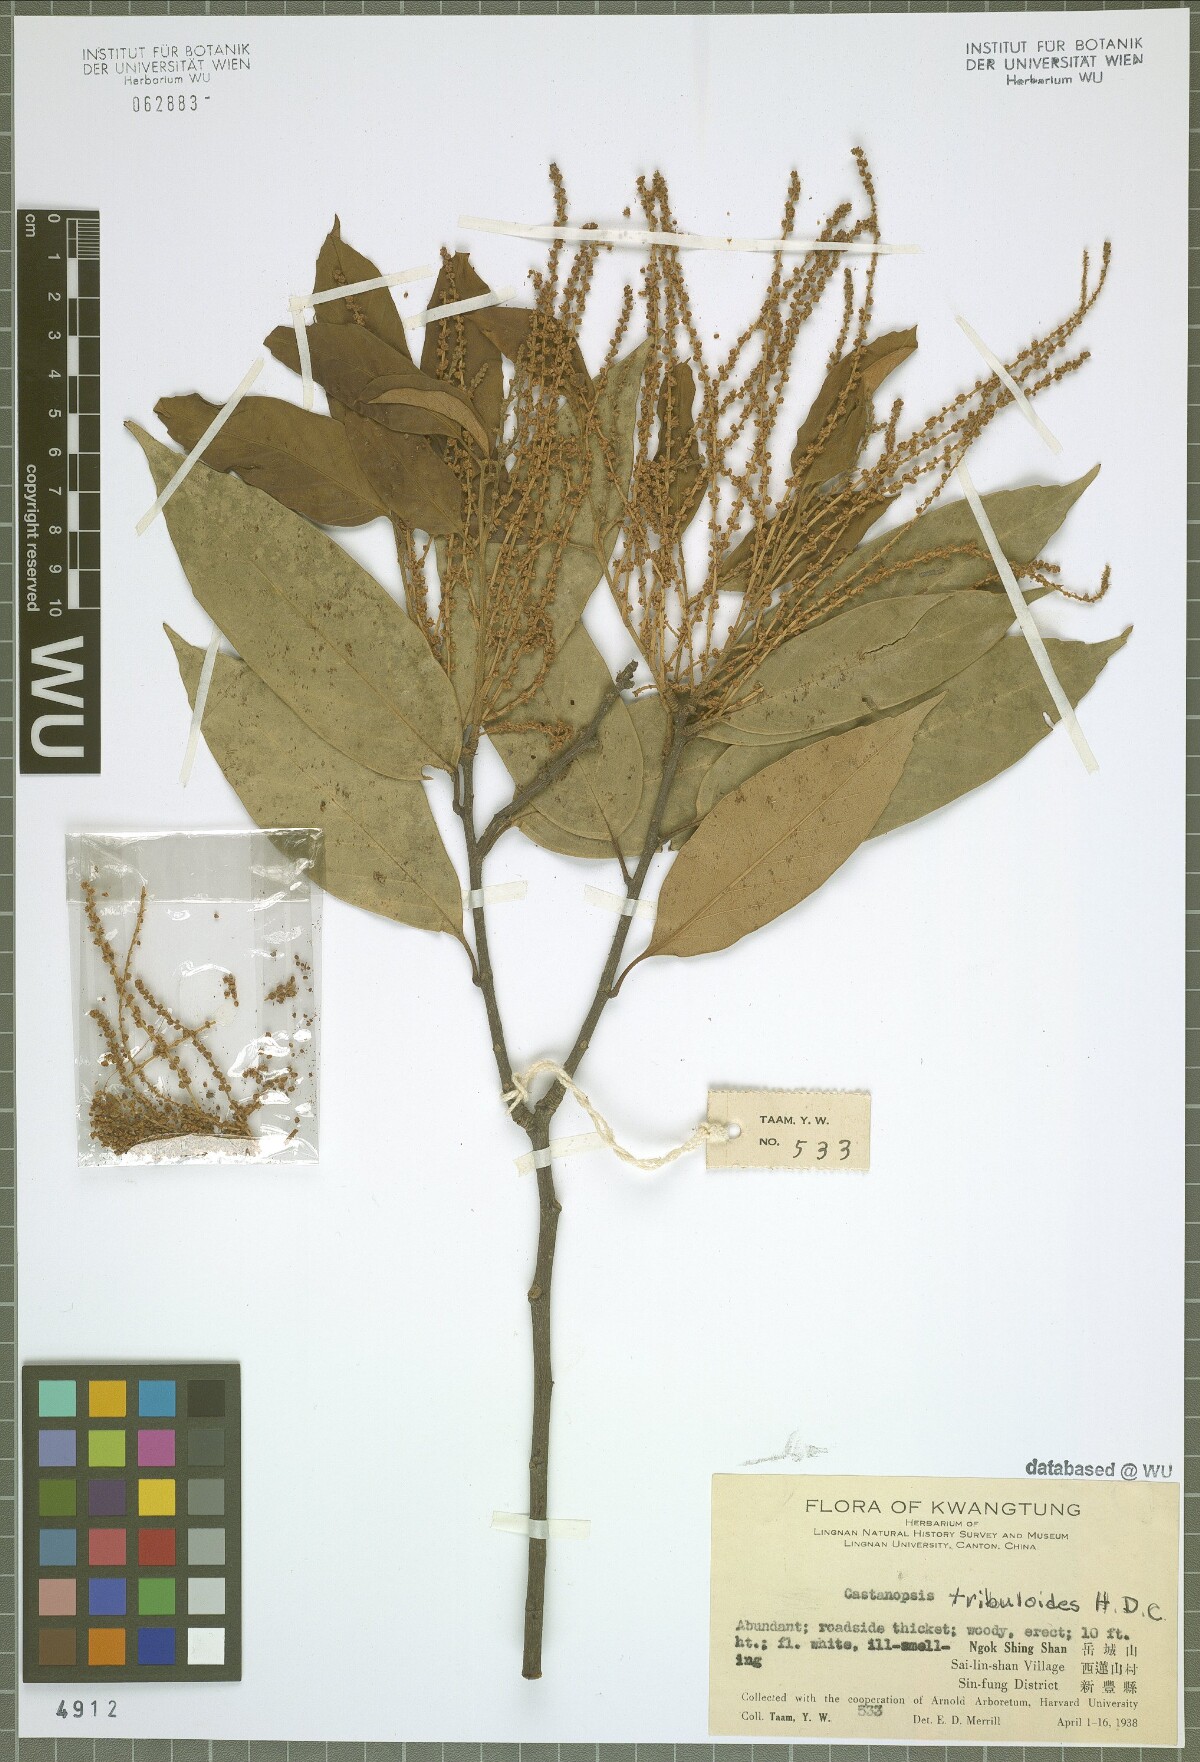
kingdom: Plantae
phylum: Tracheophyta
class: Magnoliopsida
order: Fagales
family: Fagaceae
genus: Castanopsis
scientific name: Castanopsis tribuloides
